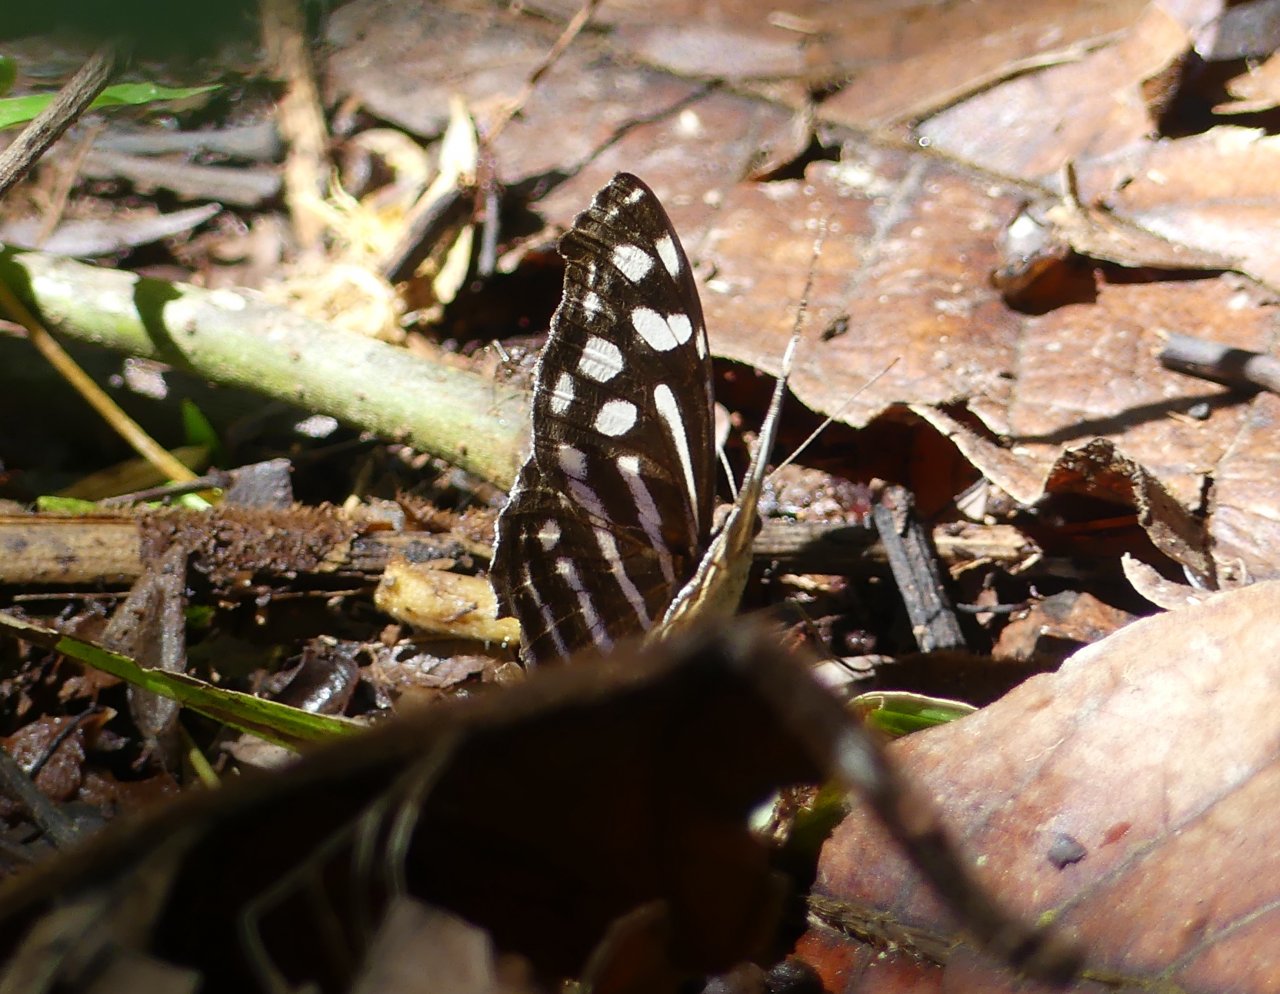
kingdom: Animalia
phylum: Arthropoda
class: Insecta
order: Lepidoptera
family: Nymphalidae
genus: Myscelia
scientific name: Myscelia cyaniris
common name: Whitened Bluewing
